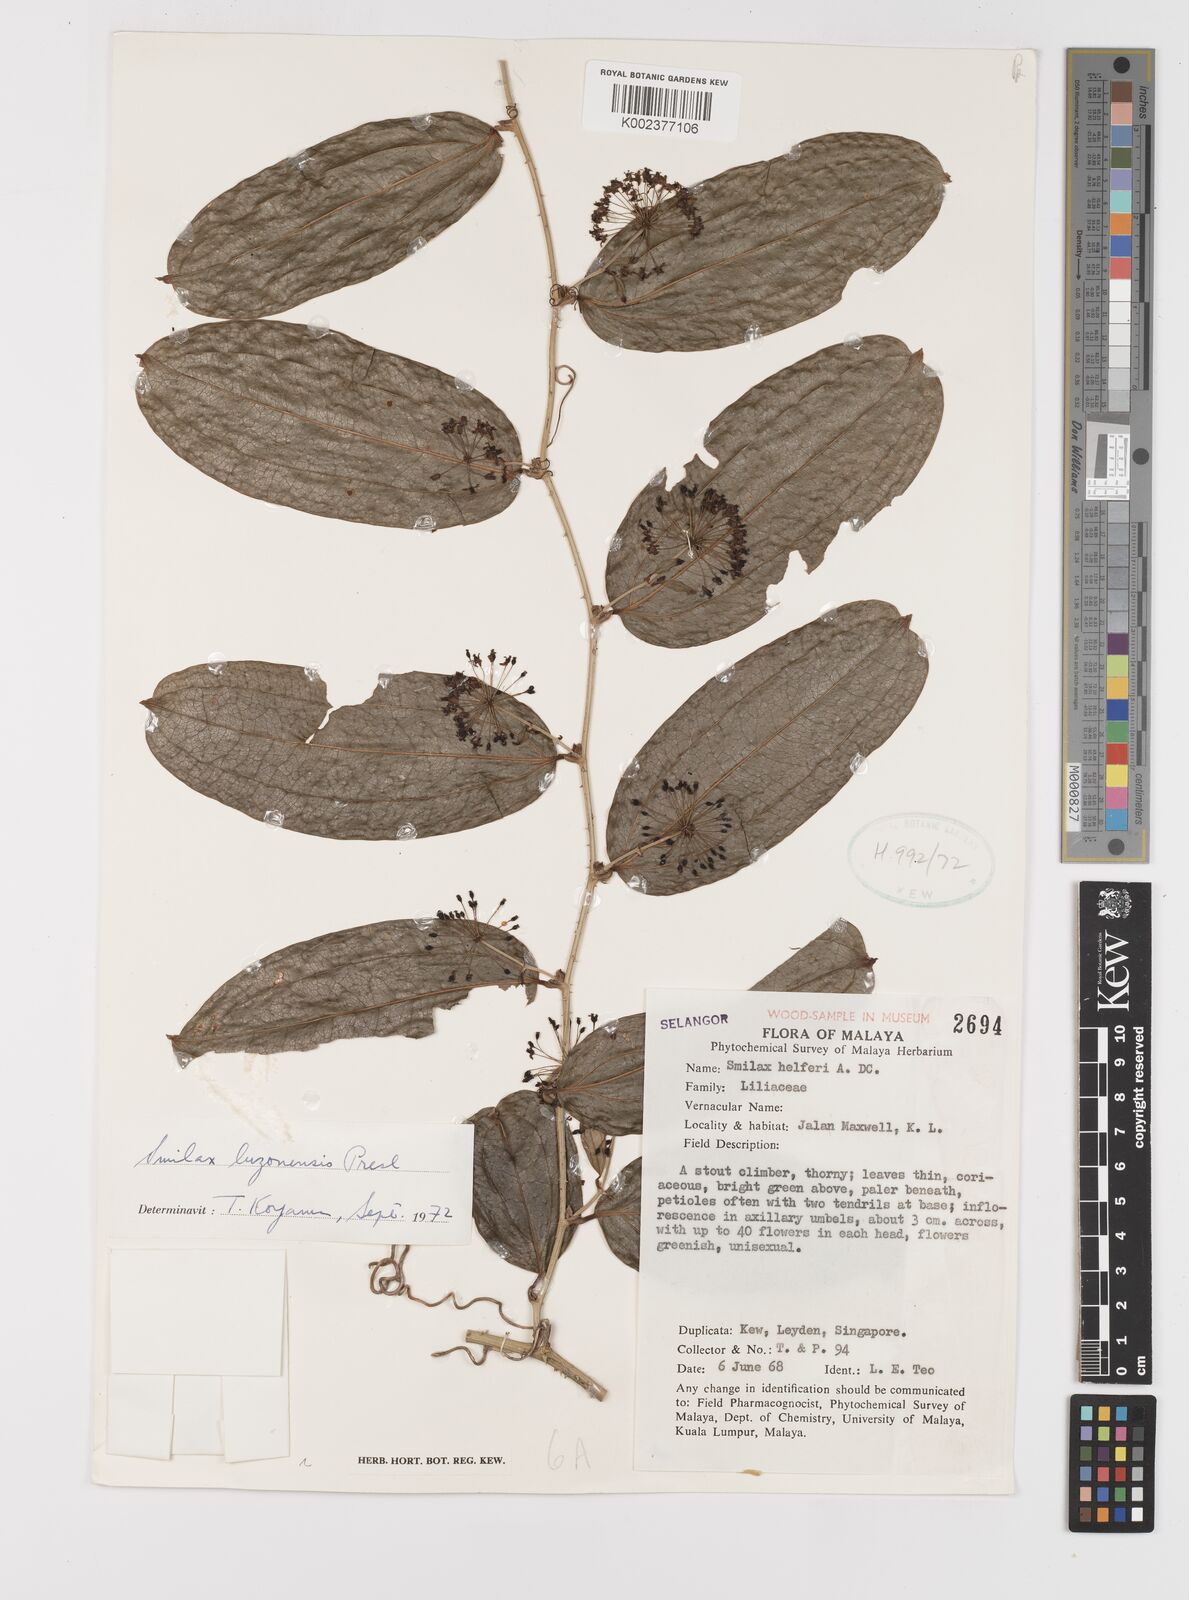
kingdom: Plantae
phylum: Tracheophyta
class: Liliopsida
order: Liliales
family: Smilacaceae
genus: Smilax
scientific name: Smilax luzonensis
